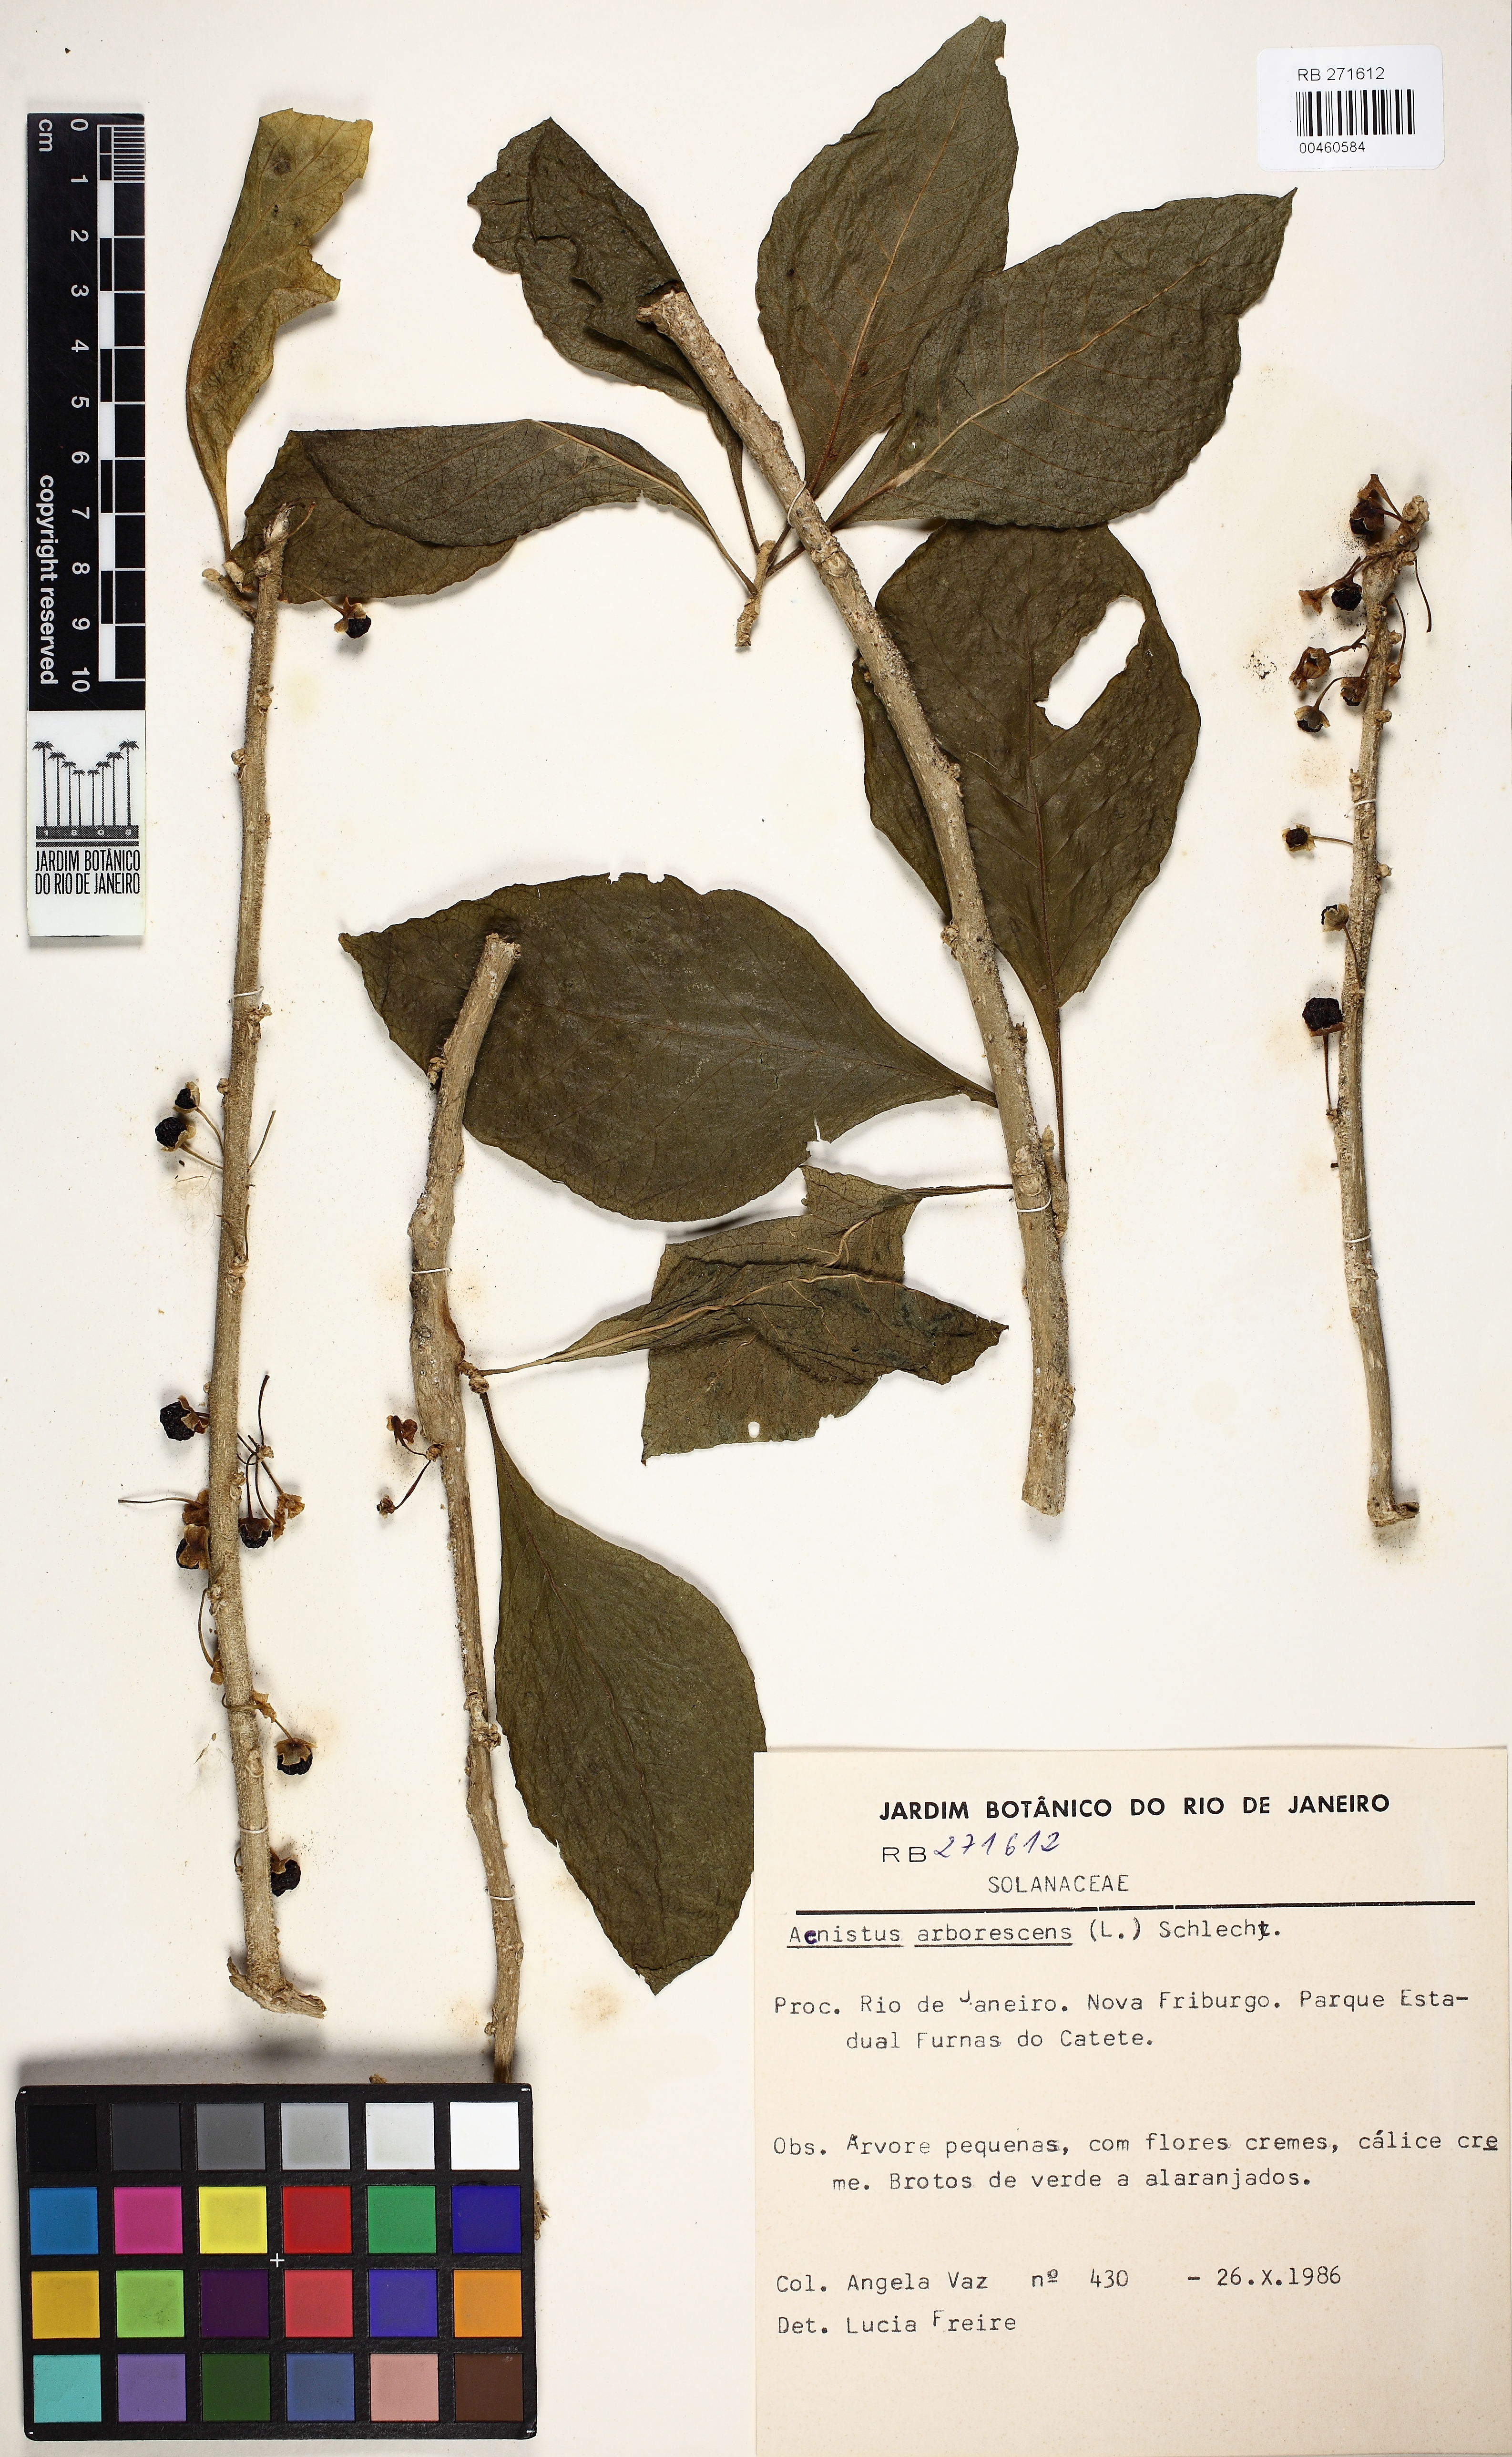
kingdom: Plantae
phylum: Tracheophyta
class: Magnoliopsida
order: Solanales
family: Solanaceae
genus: Iochroma
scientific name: Iochroma arborescens
